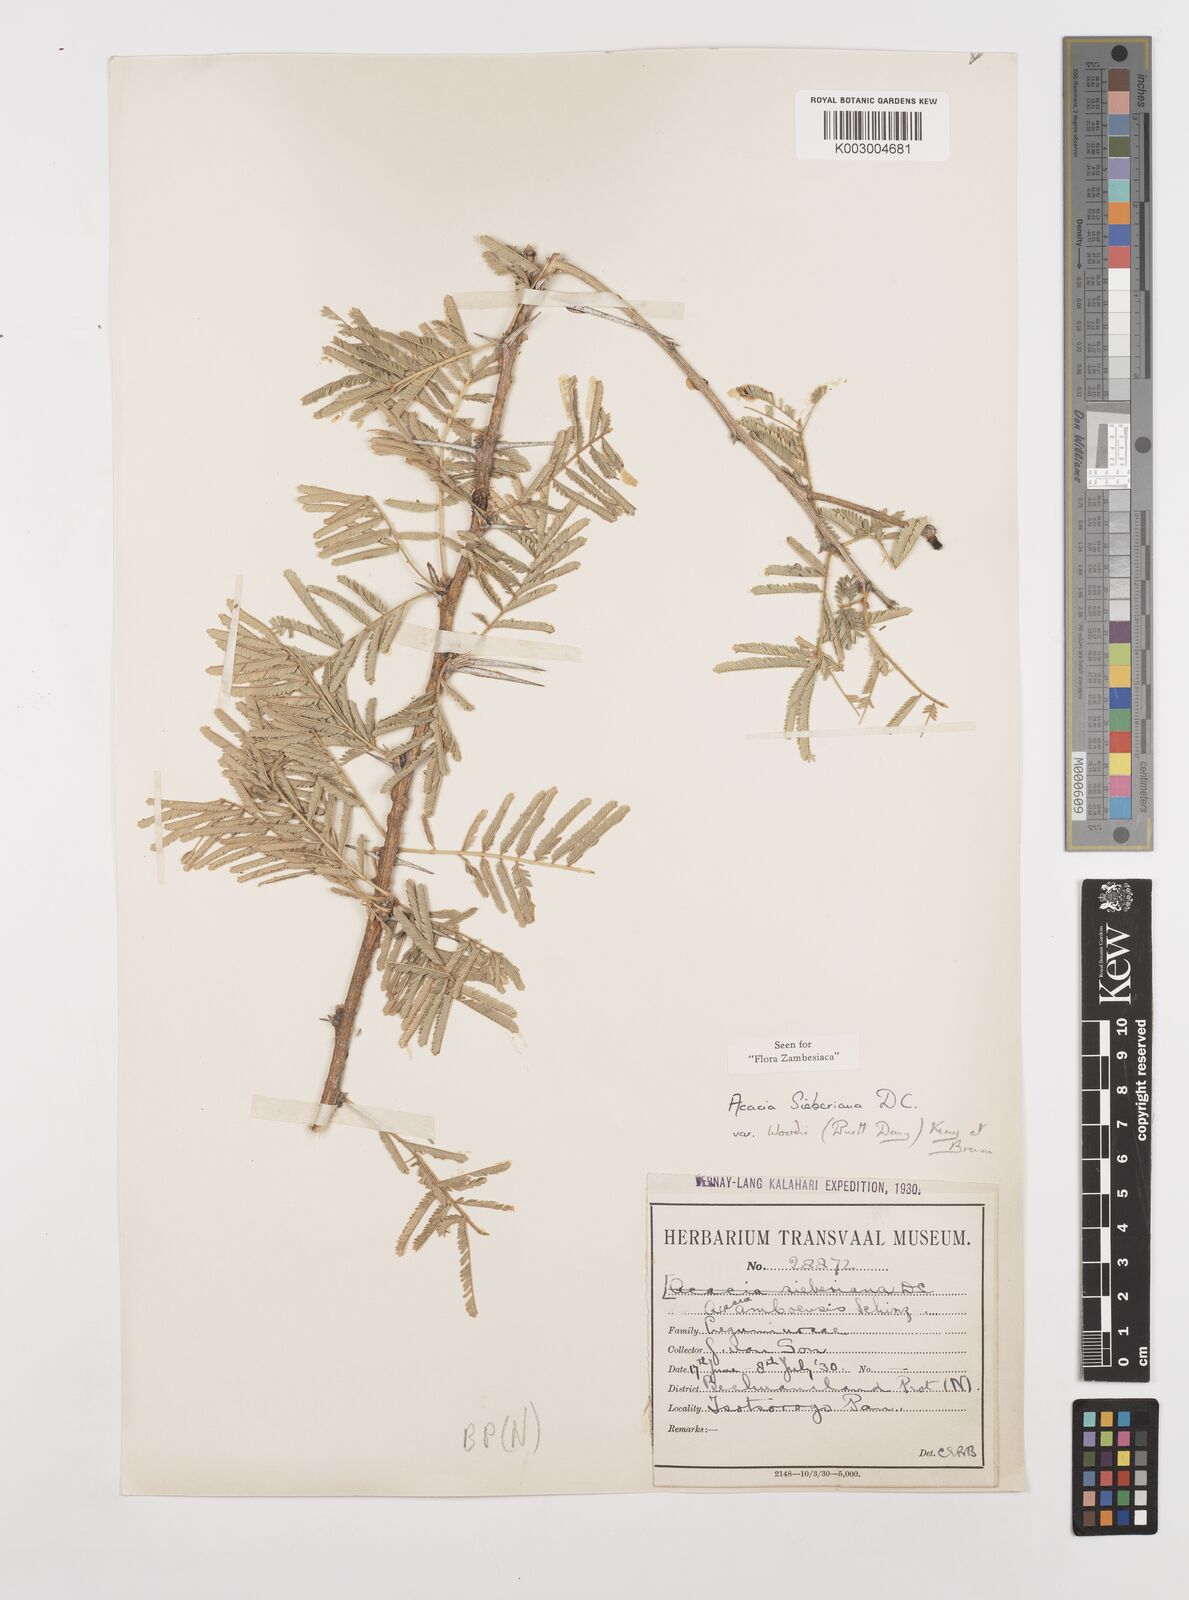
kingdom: Plantae
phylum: Tracheophyta
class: Magnoliopsida
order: Fabales
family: Fabaceae
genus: Vachellia
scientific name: Vachellia sieberiana
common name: Flat-topped thorn
